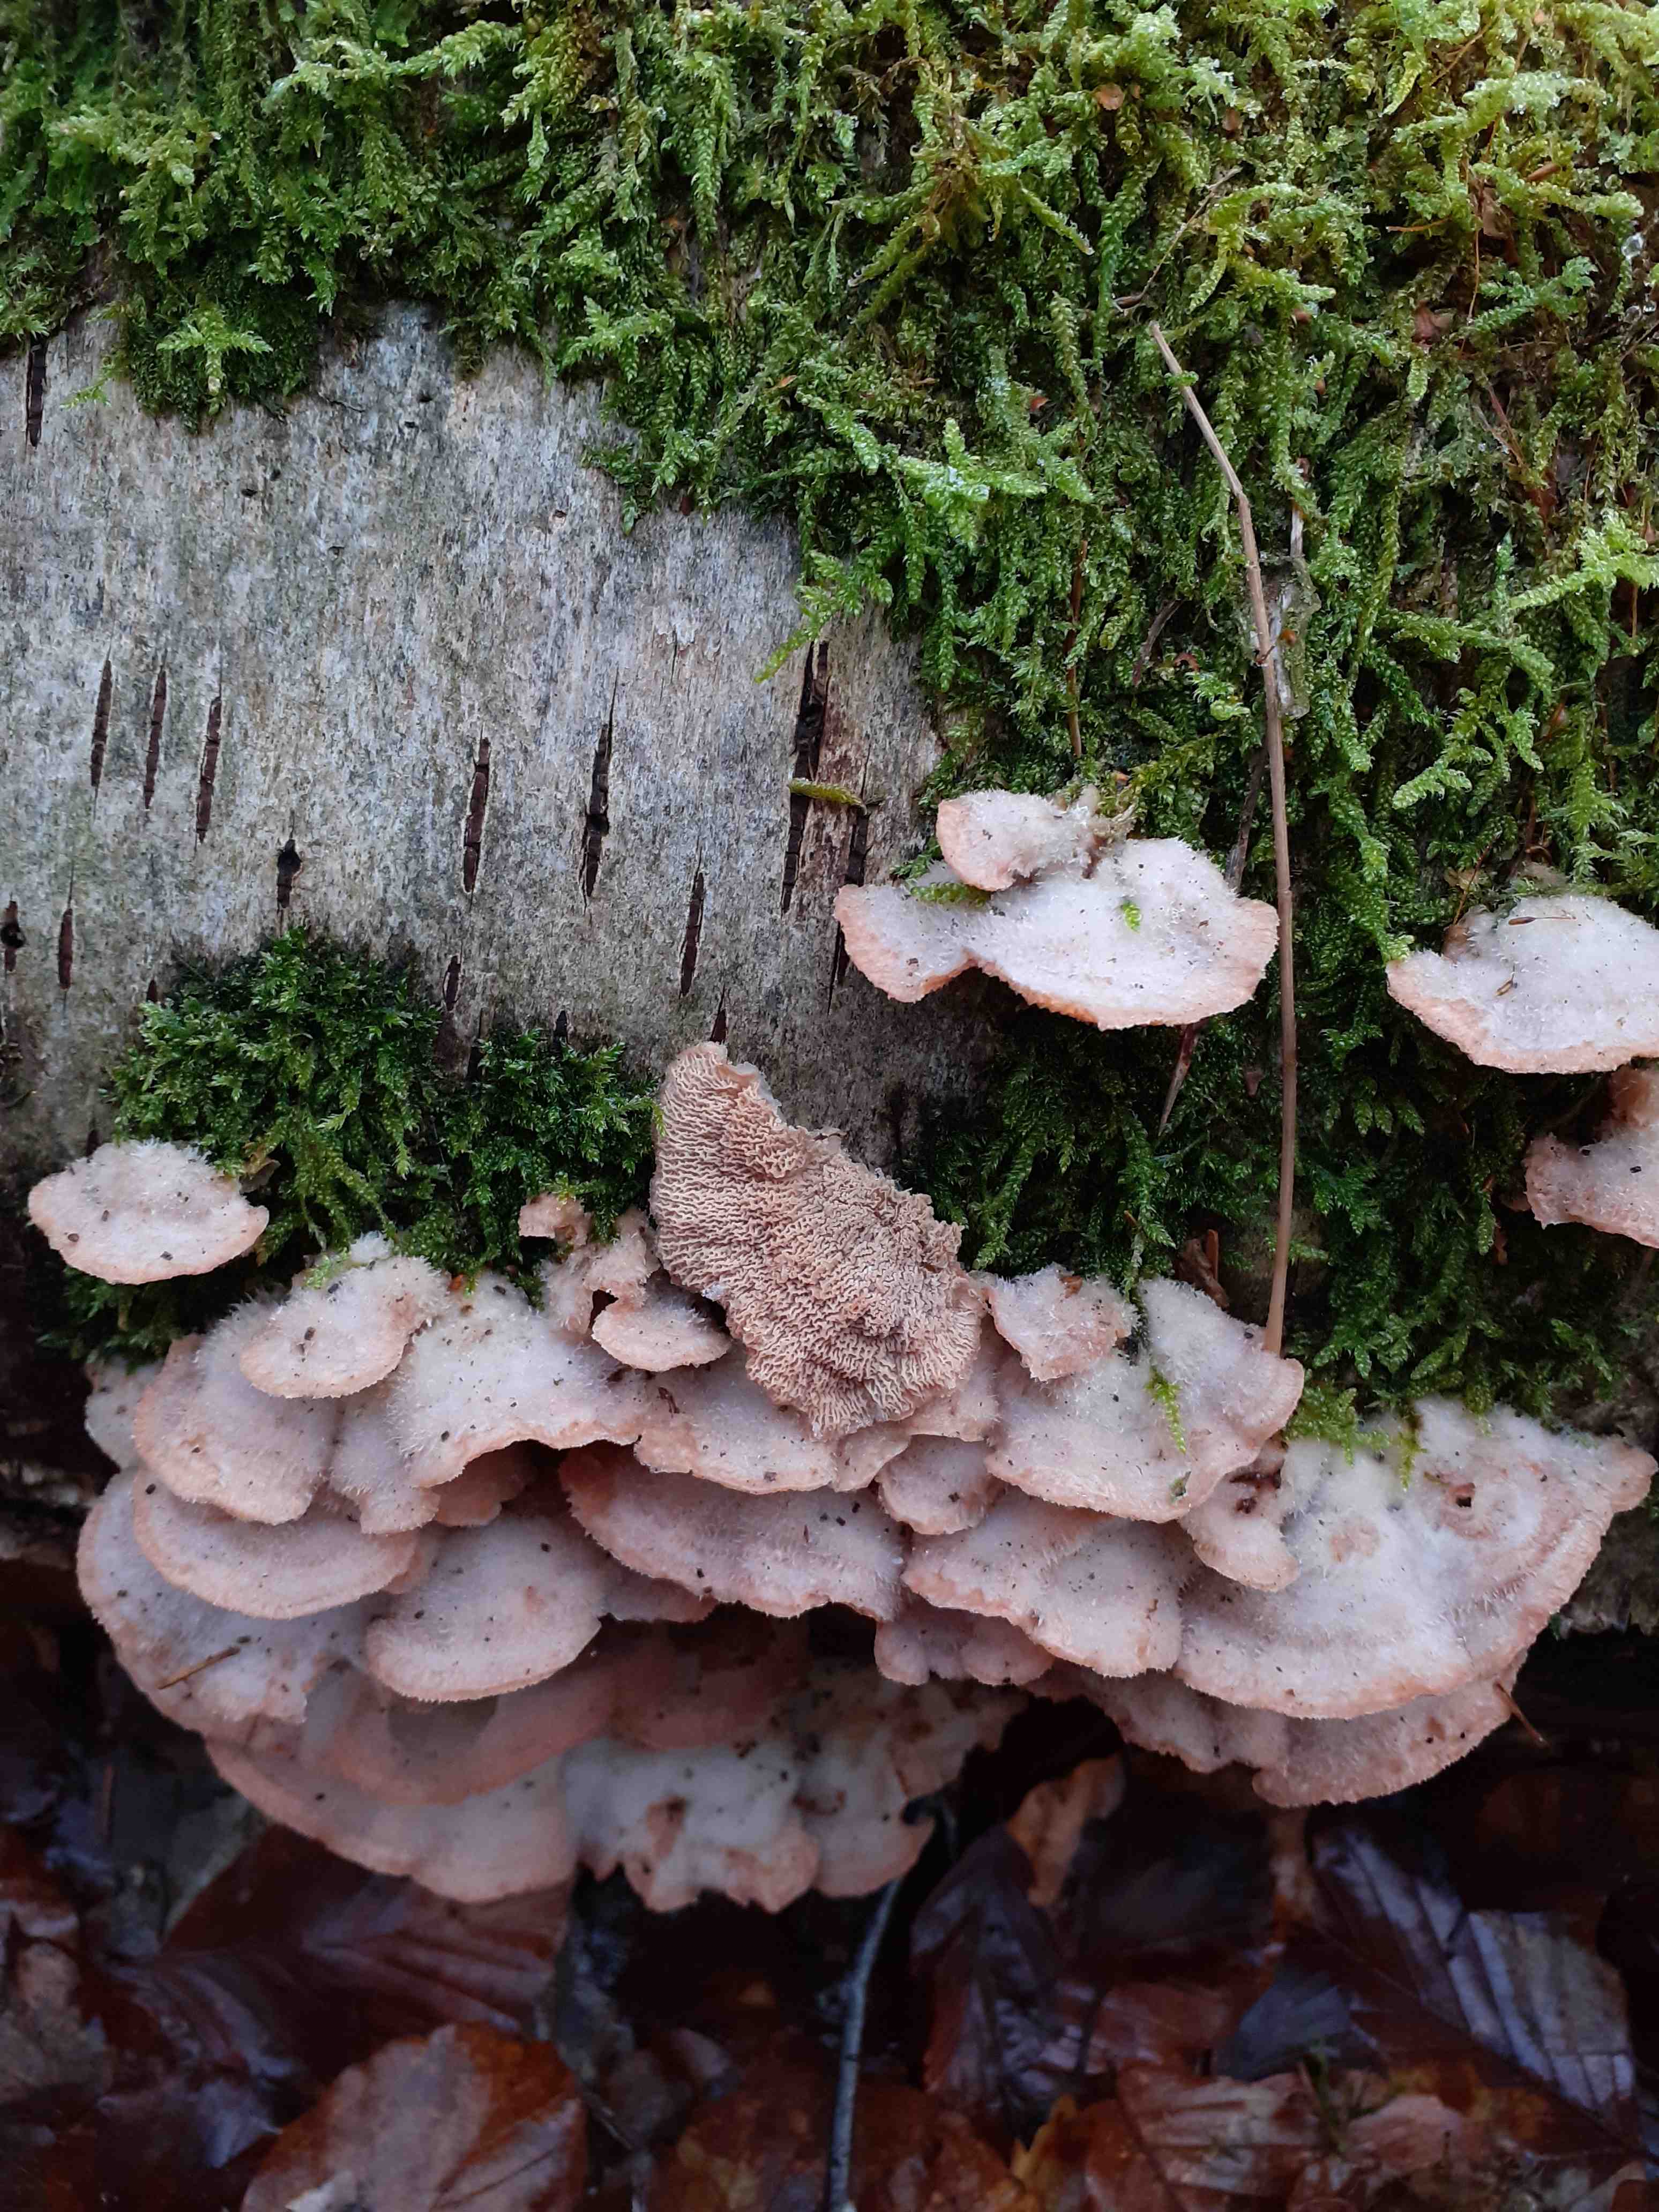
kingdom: Fungi
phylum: Basidiomycota
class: Agaricomycetes
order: Polyporales
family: Meruliaceae
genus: Phlebia
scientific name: Phlebia tremellosa
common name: bævrende åresvamp
